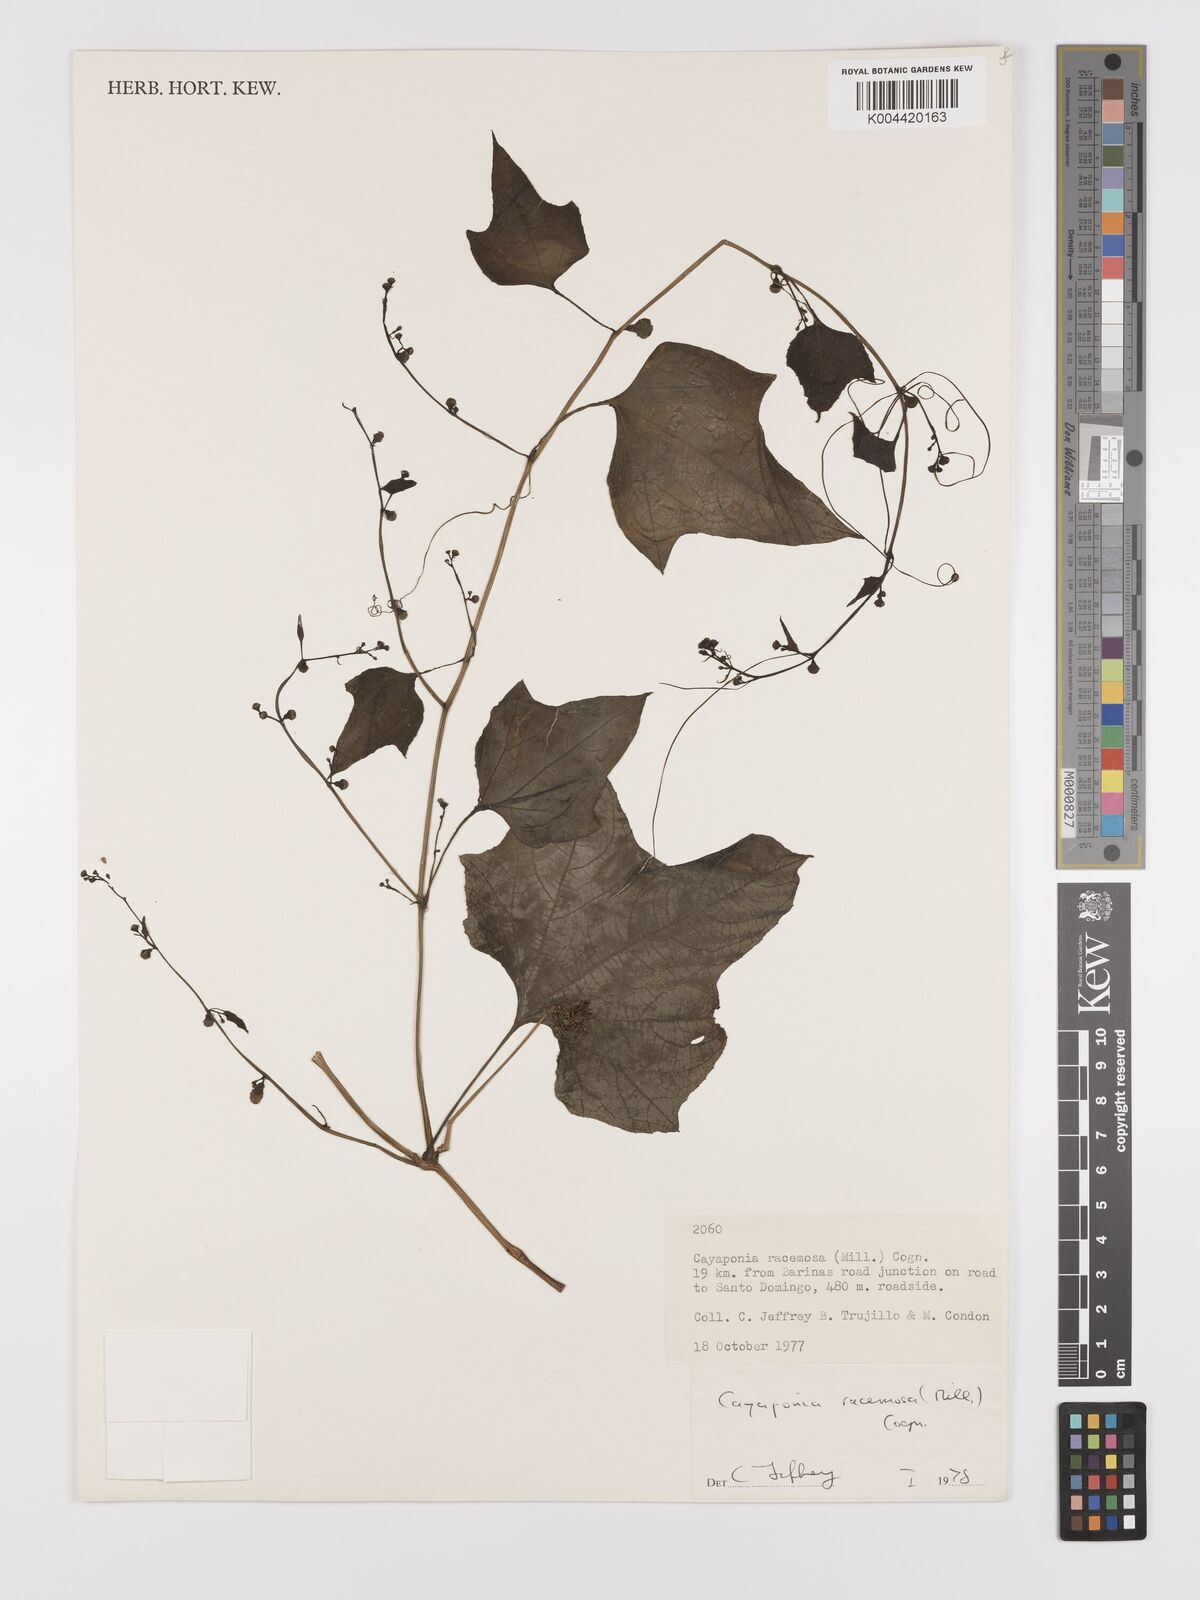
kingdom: Plantae
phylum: Tracheophyta
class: Magnoliopsida
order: Cucurbitales
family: Cucurbitaceae
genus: Cayaponia
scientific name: Cayaponia racemosa
